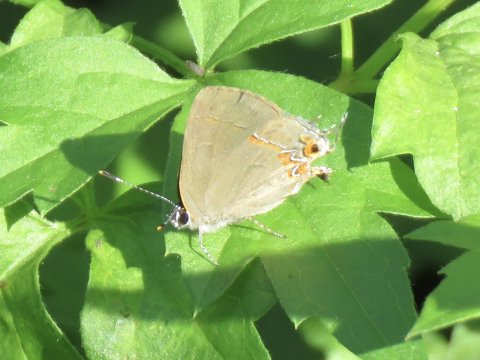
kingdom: Animalia
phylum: Arthropoda
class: Insecta
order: Lepidoptera
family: Lycaenidae
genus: Calycopis
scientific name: Calycopis isobeon
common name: Dusky-blue Groundstreak
